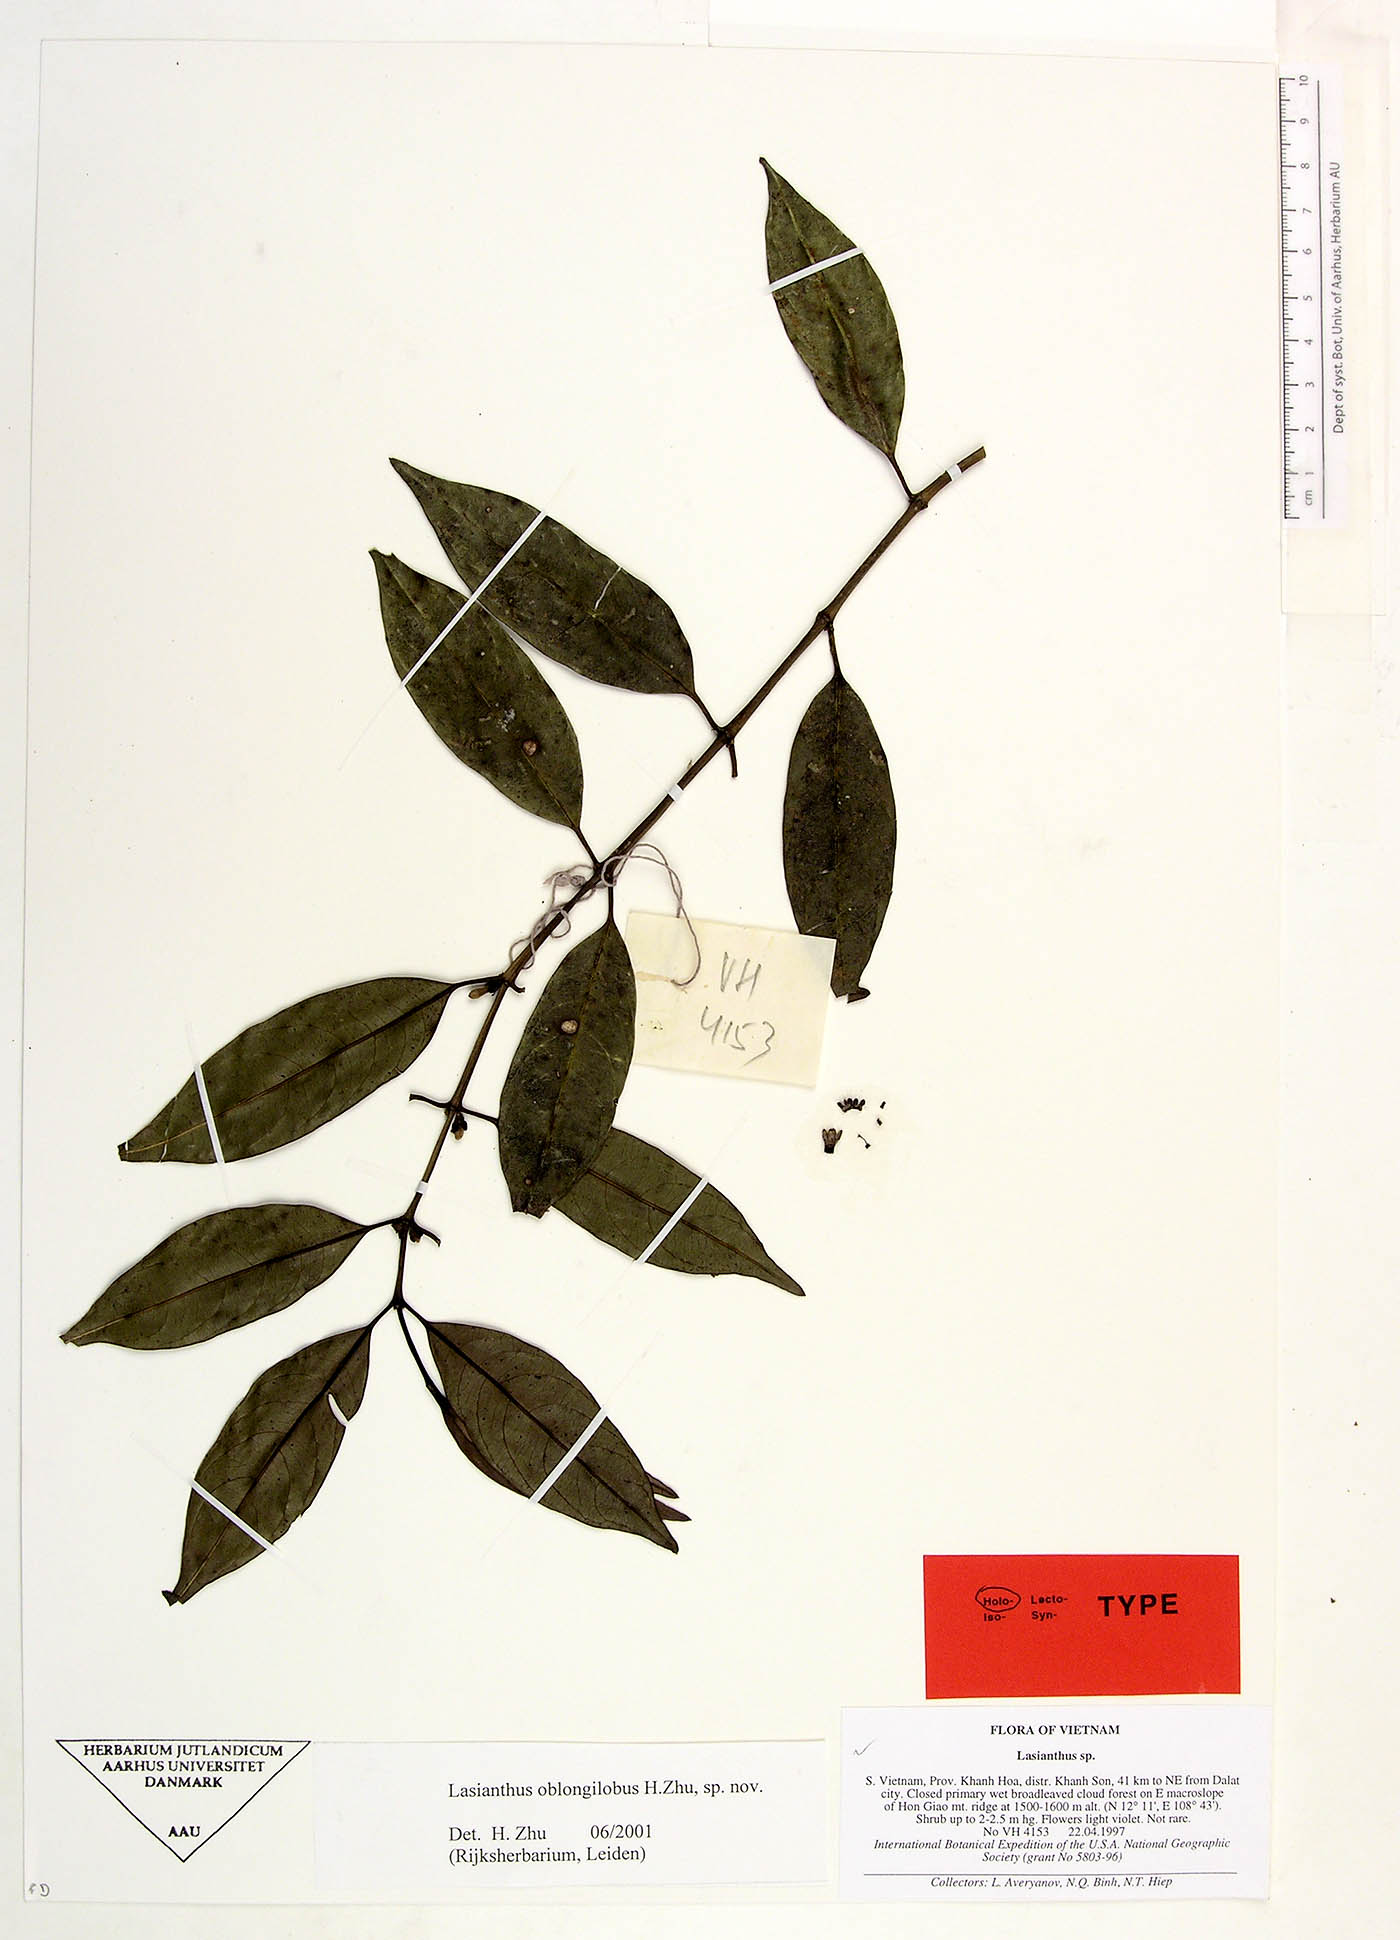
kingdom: Plantae
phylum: Tracheophyta
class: Magnoliopsida
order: Gentianales
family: Rubiaceae
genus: Lasianthus
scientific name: Lasianthus oblongilobus
